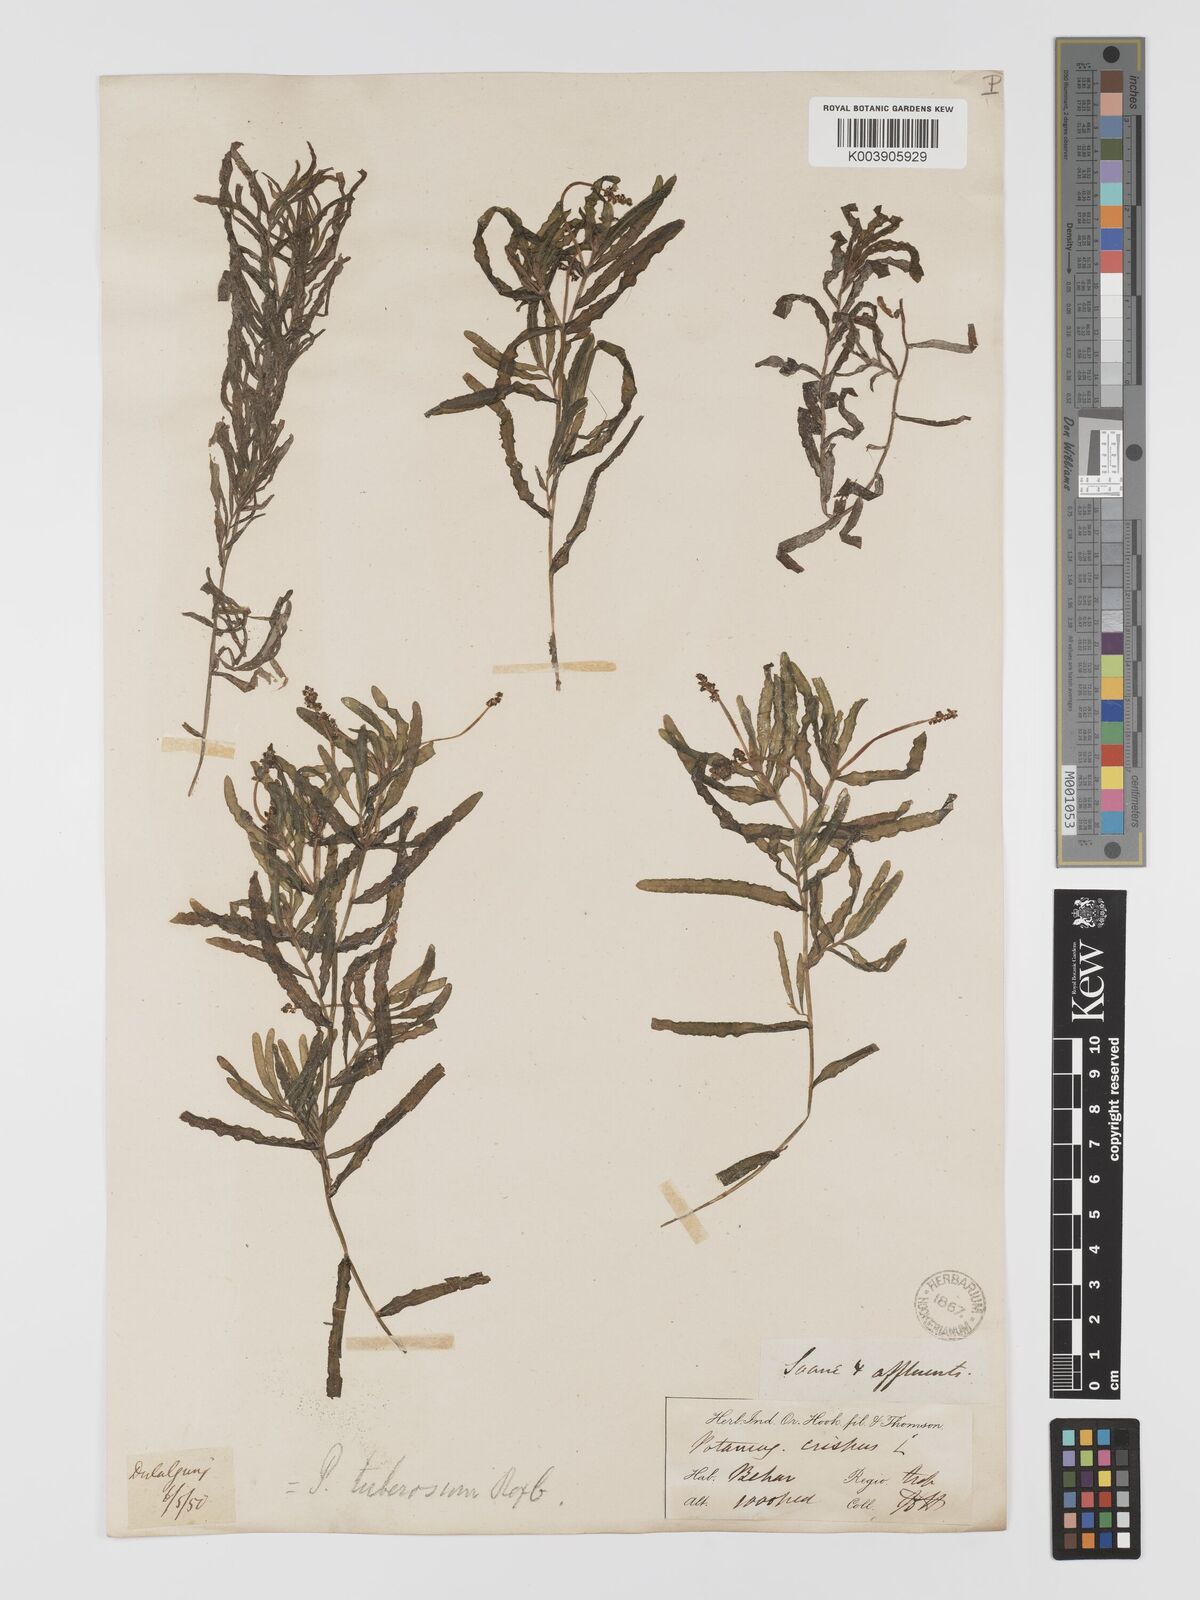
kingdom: Plantae
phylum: Tracheophyta
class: Liliopsida
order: Alismatales
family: Potamogetonaceae
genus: Potamogeton
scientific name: Potamogeton crispus
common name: Curled pondweed
